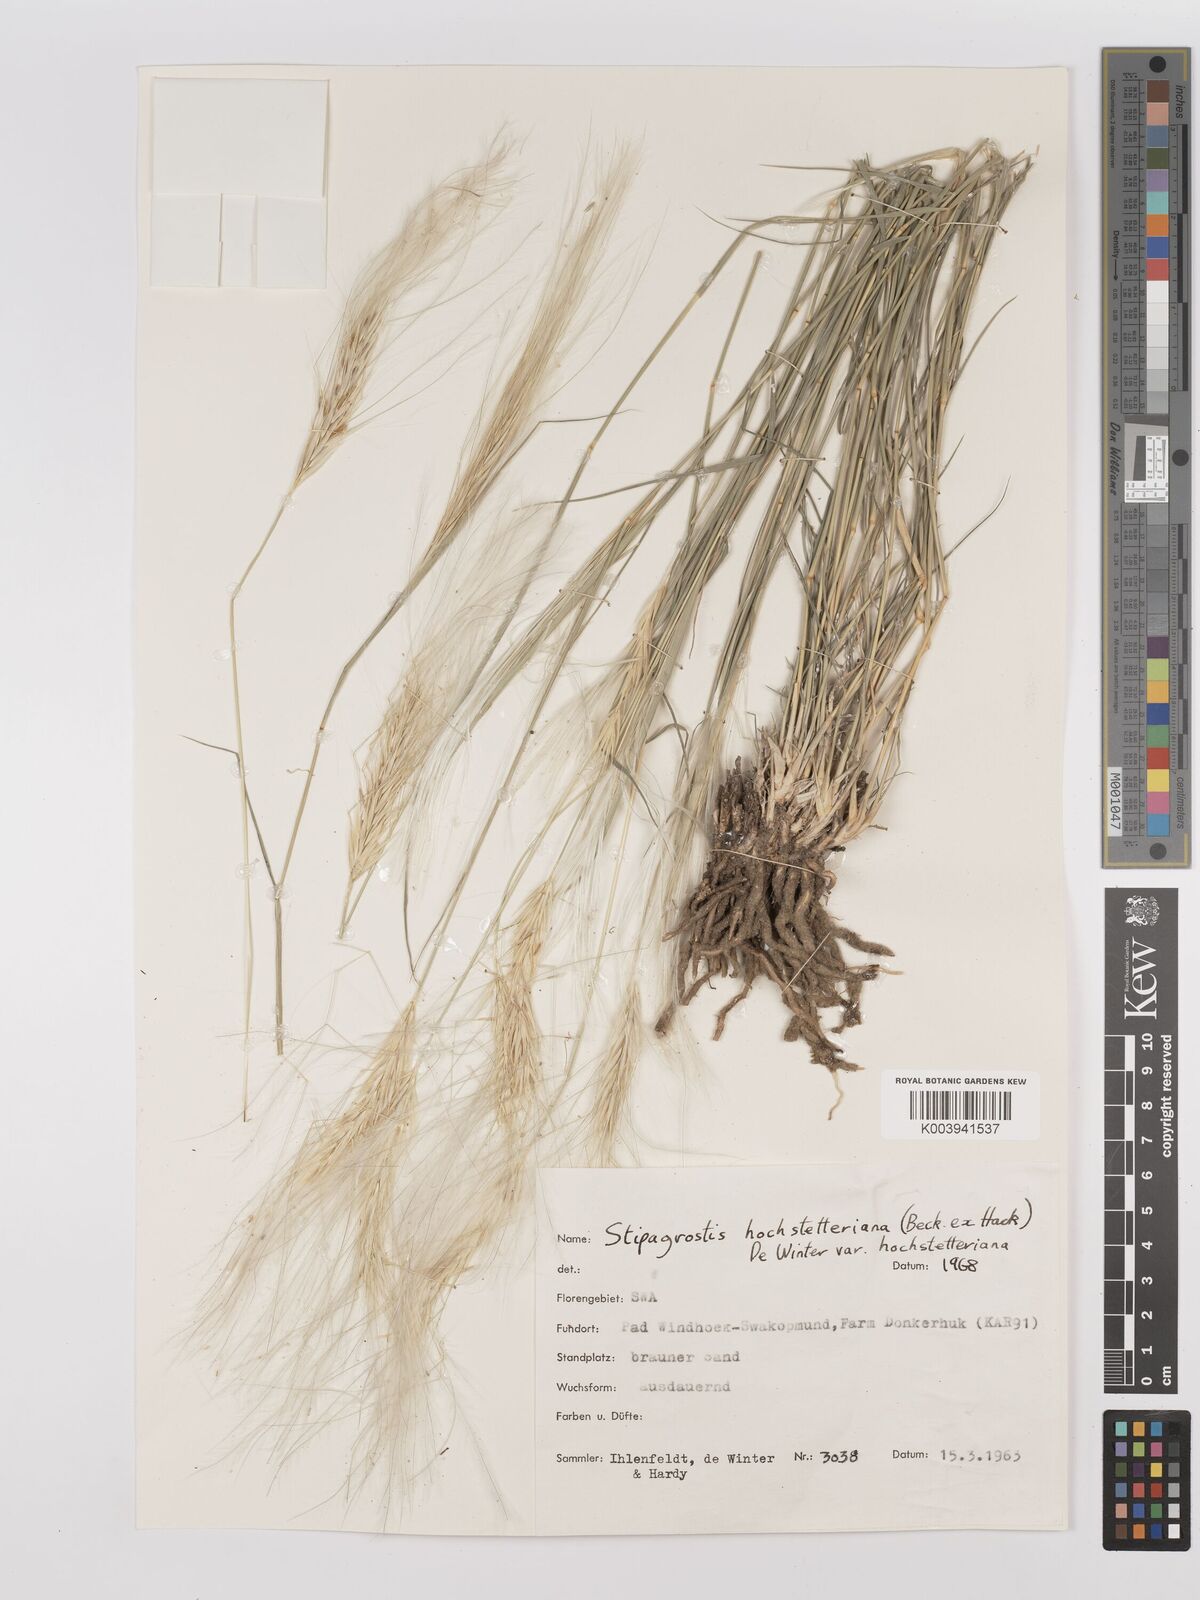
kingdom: Plantae
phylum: Tracheophyta
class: Liliopsida
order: Poales
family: Poaceae
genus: Stipagrostis
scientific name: Stipagrostis hochstetteriana
